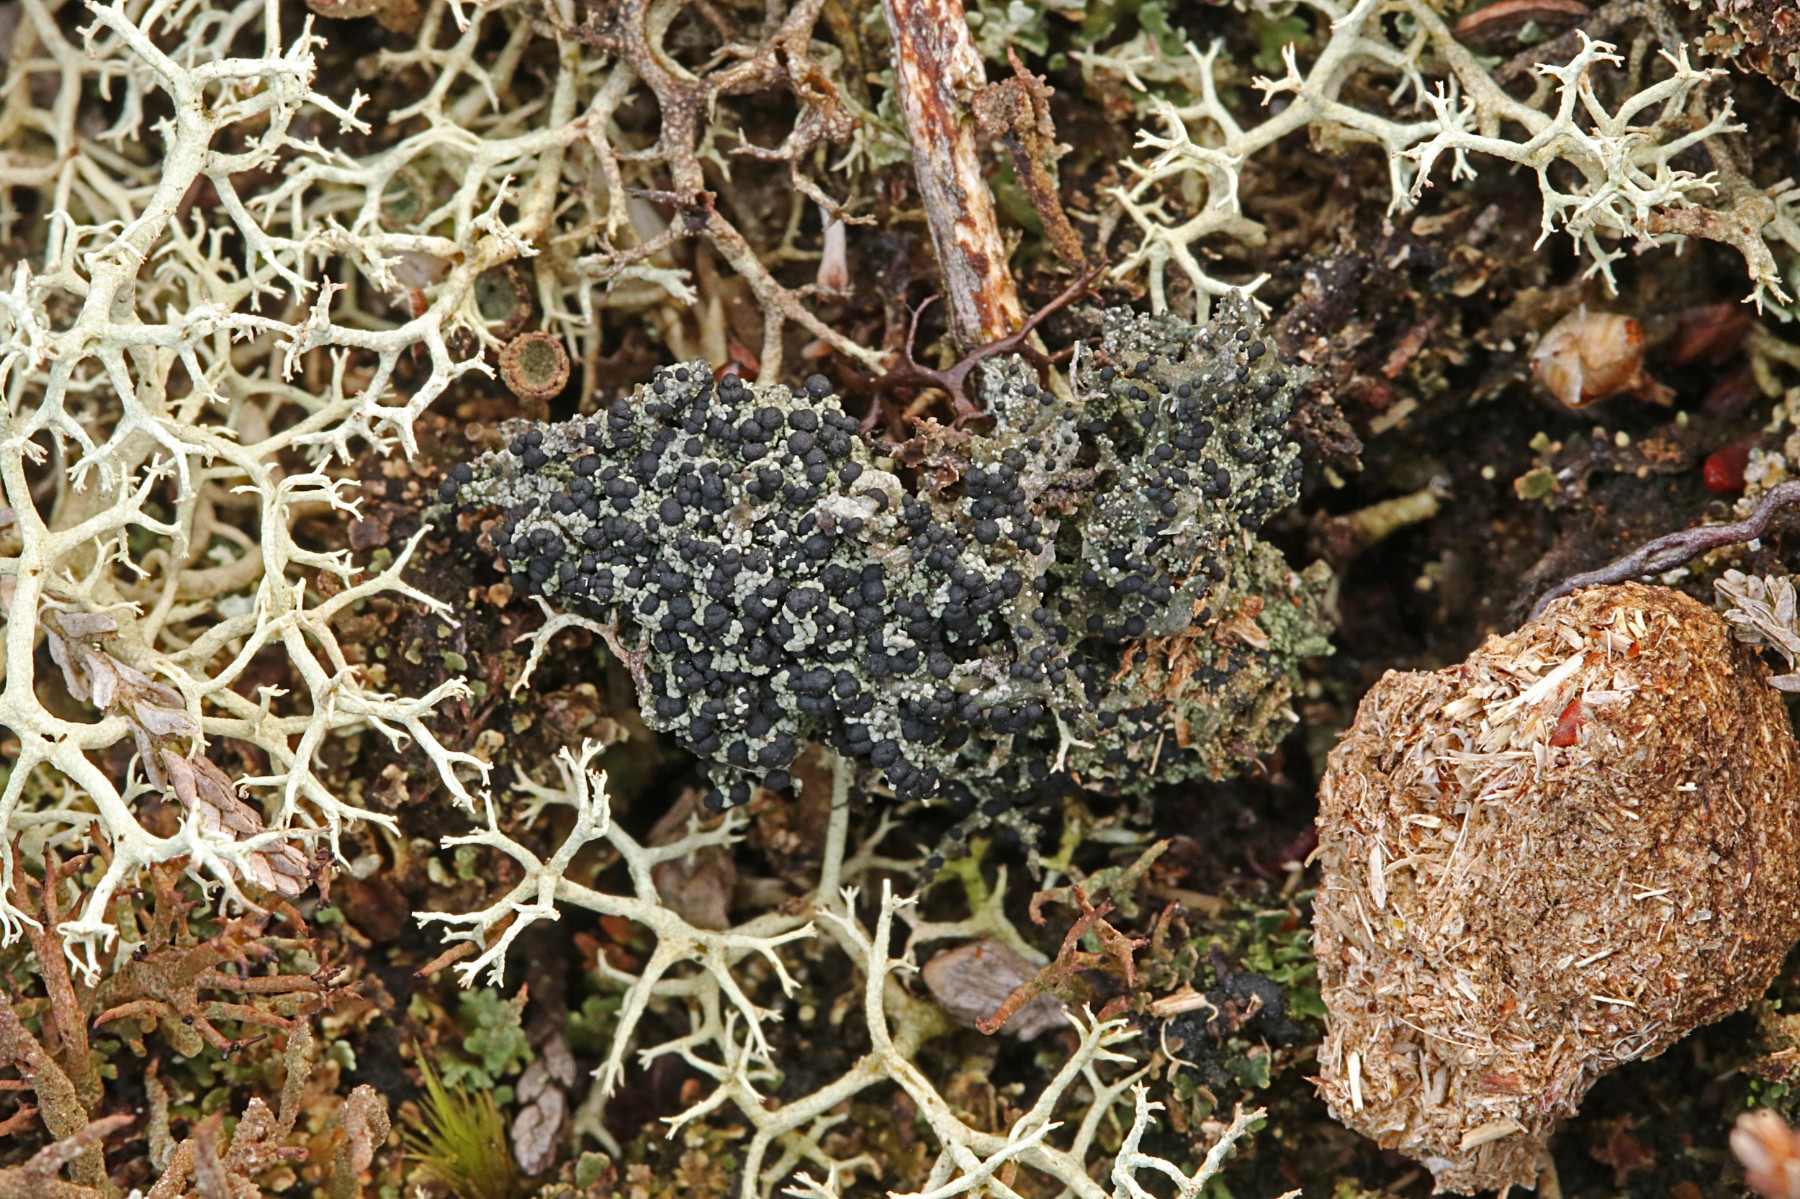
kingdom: Fungi
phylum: Ascomycota
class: Lecanoromycetes
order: Lecanorales
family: Byssolomataceae
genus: Micarea
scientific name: Micarea lignaria
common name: tørve-knaplav
